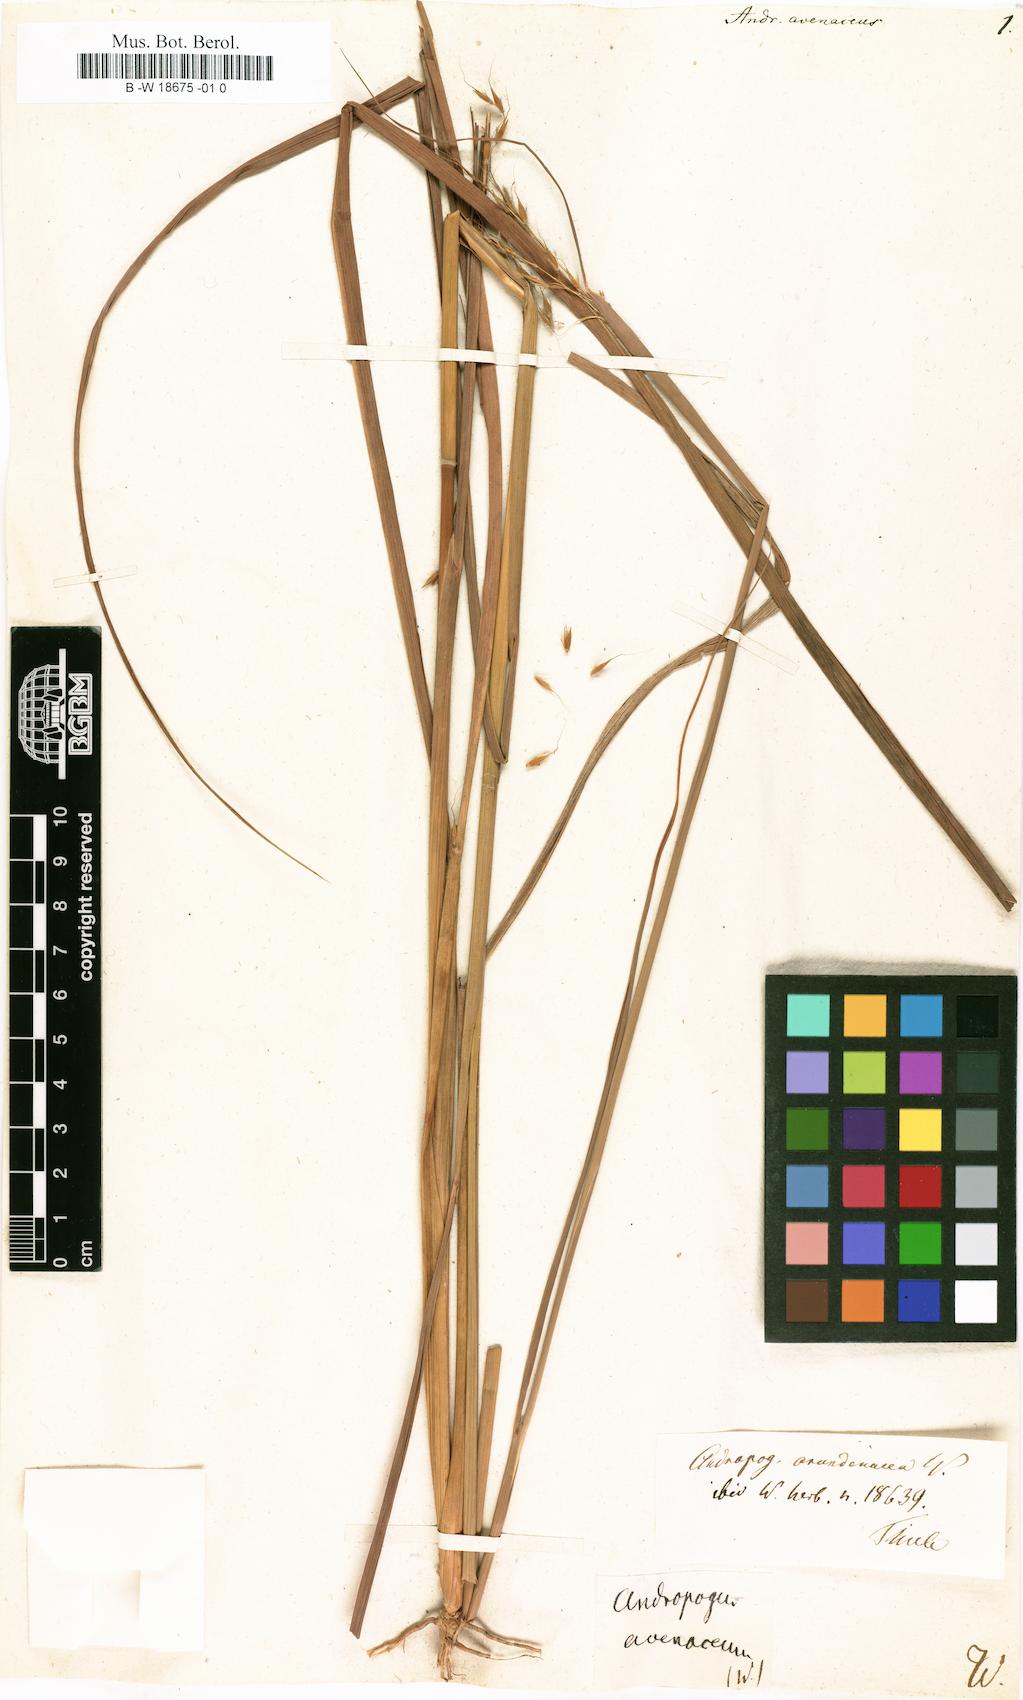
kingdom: Plantae
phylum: Tracheophyta
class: Liliopsida
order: Poales
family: Poaceae
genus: Sorghastrum
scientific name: Sorghastrum nutans
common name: Indian grass
